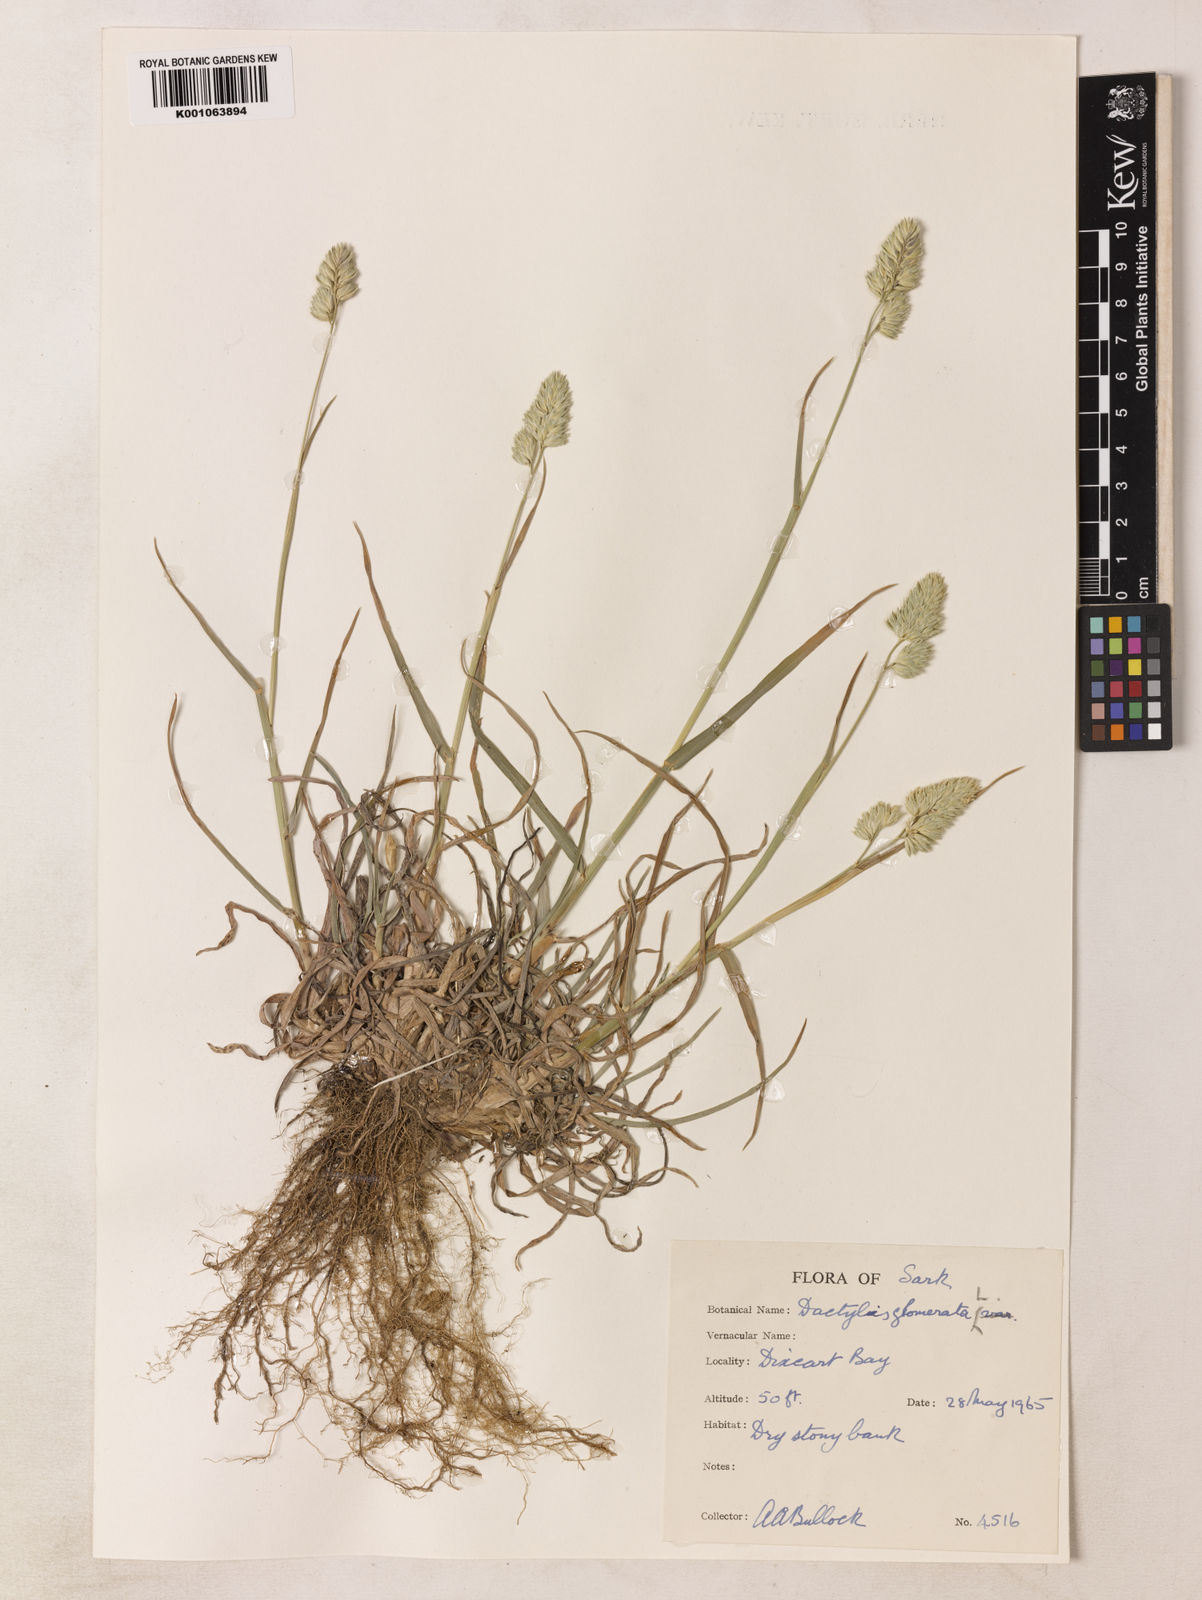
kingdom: Plantae
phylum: Tracheophyta
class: Liliopsida
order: Poales
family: Poaceae
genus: Dactylis
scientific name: Dactylis glomerata
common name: Orchardgrass
